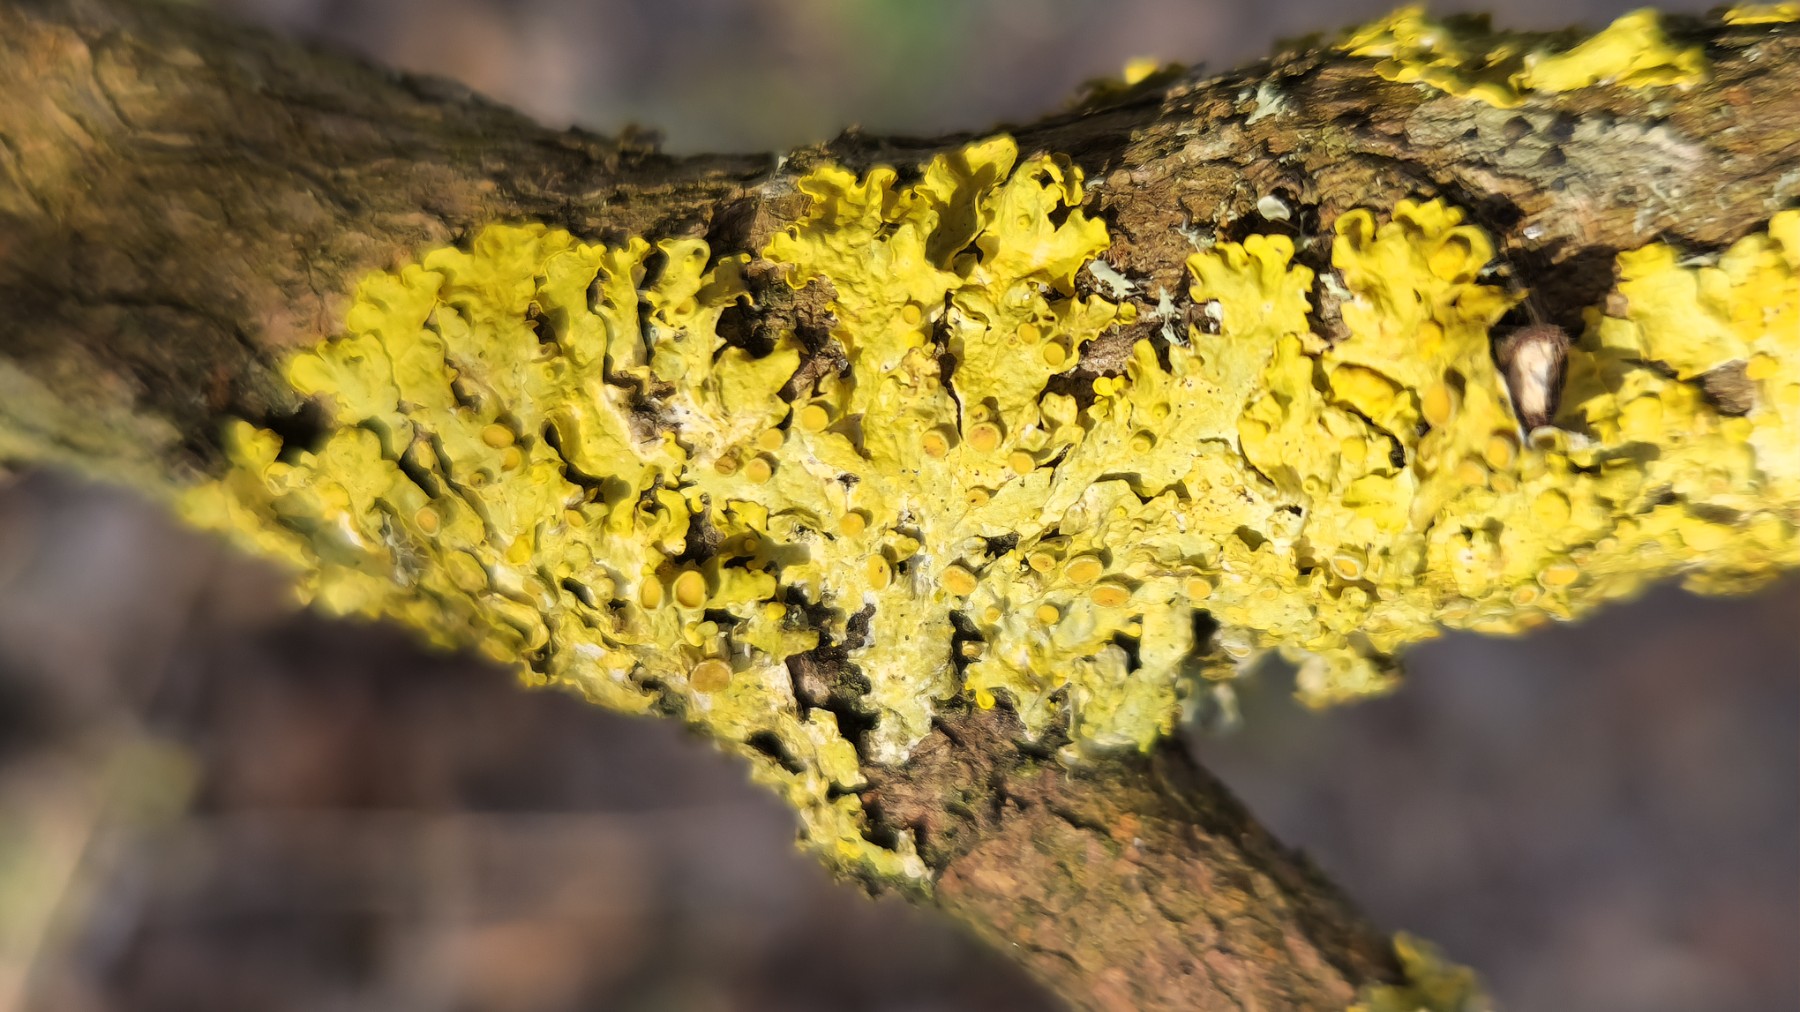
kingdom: Fungi
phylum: Ascomycota
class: Lecanoromycetes
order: Teloschistales
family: Teloschistaceae
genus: Xanthoria
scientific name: Xanthoria parietina
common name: almindelig væggelav
